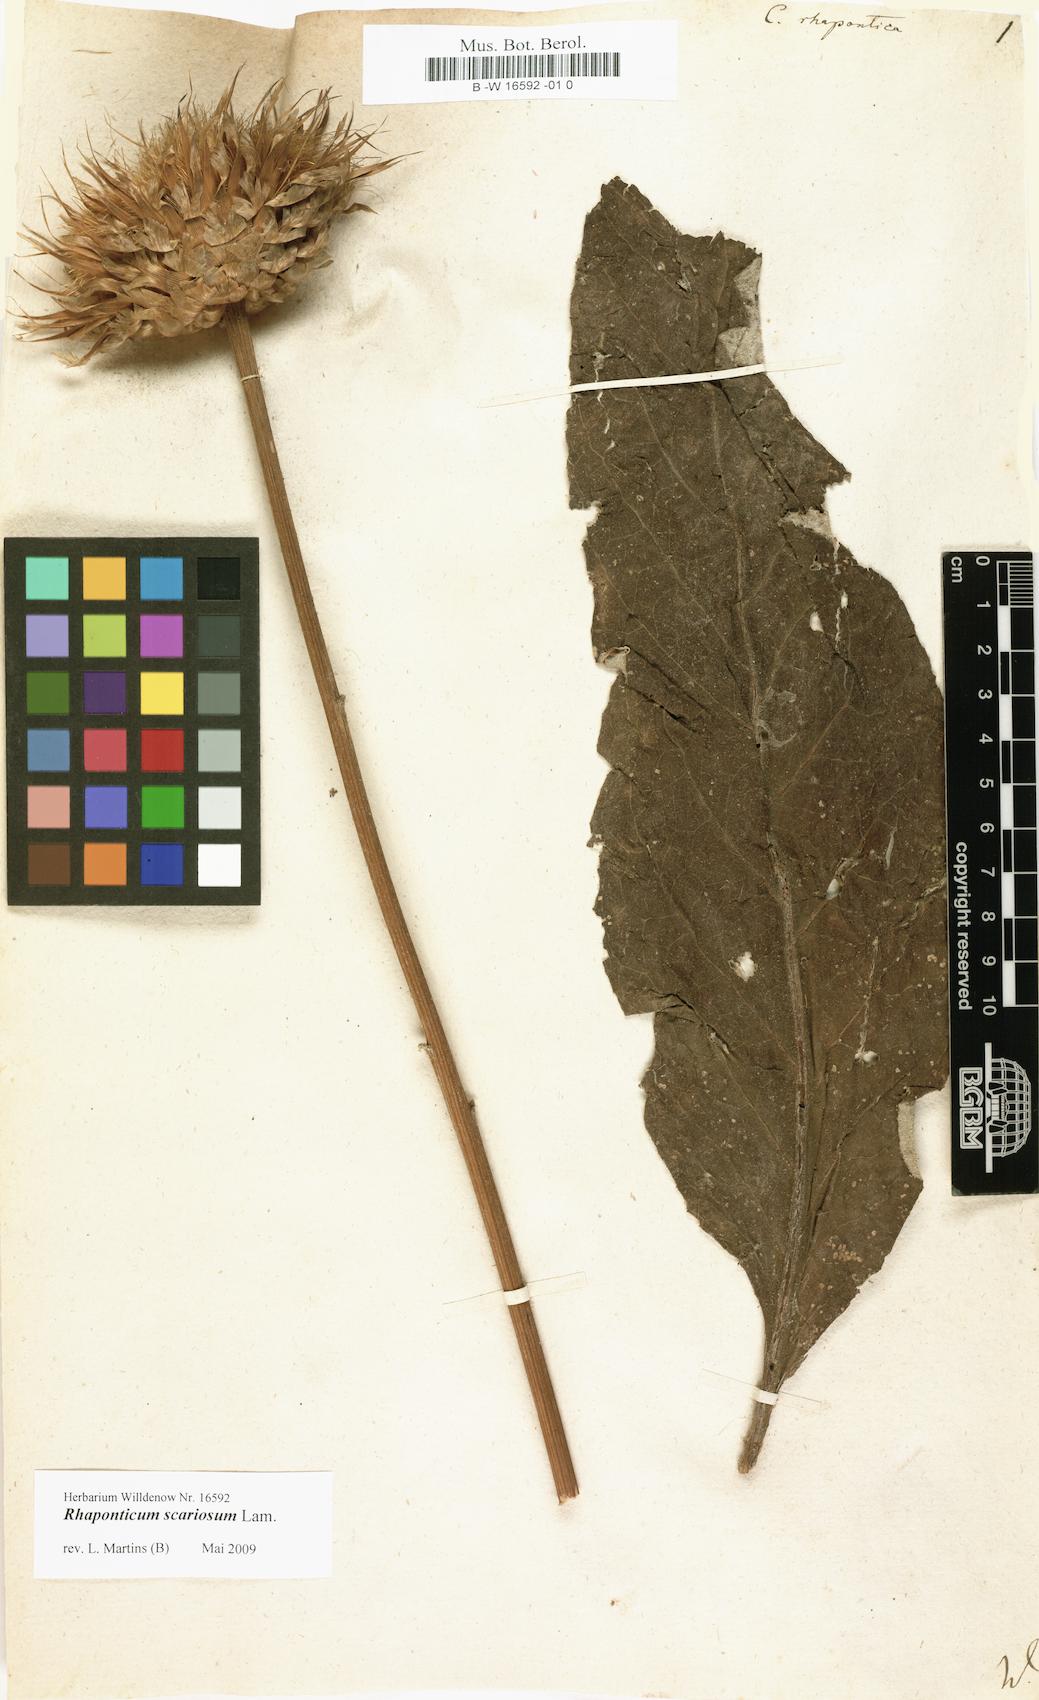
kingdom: Plantae
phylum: Tracheophyta
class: Magnoliopsida
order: Asterales
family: Asteraceae
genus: Leuzea
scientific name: Leuzea rhapontica
